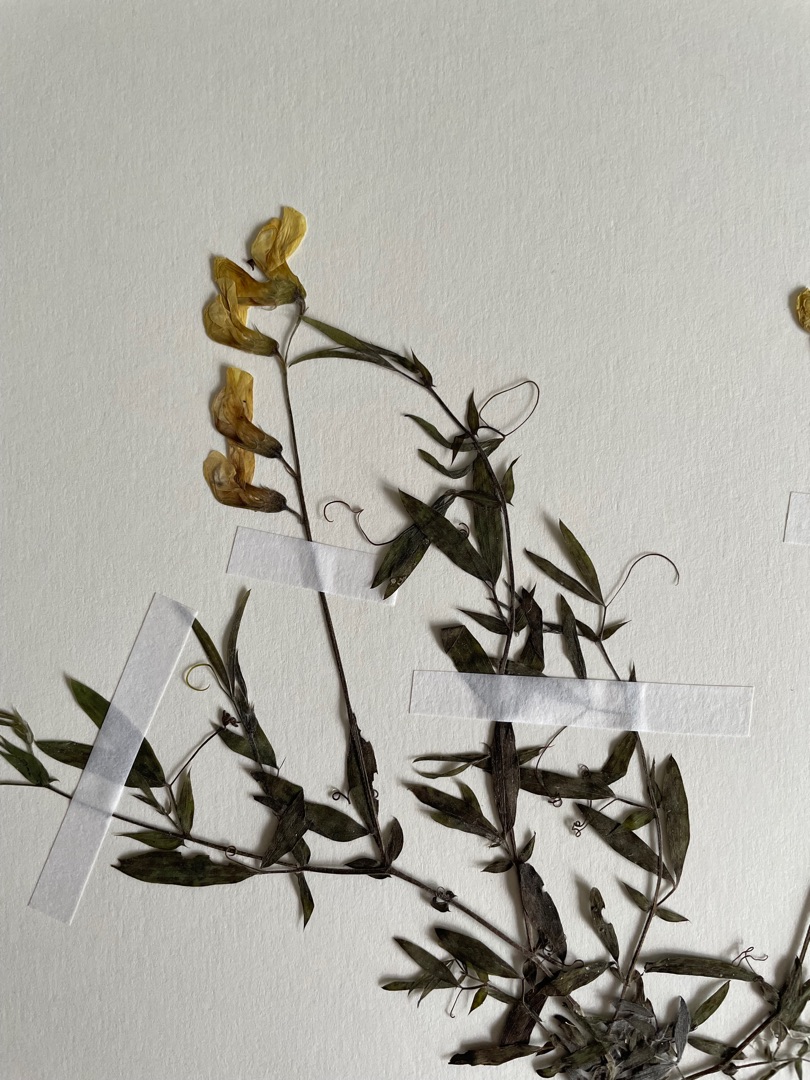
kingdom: Plantae
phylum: Tracheophyta
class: Magnoliopsida
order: Fabales
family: Fabaceae
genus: Lathyrus
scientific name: Lathyrus pratensis
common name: Gul fladbælg
